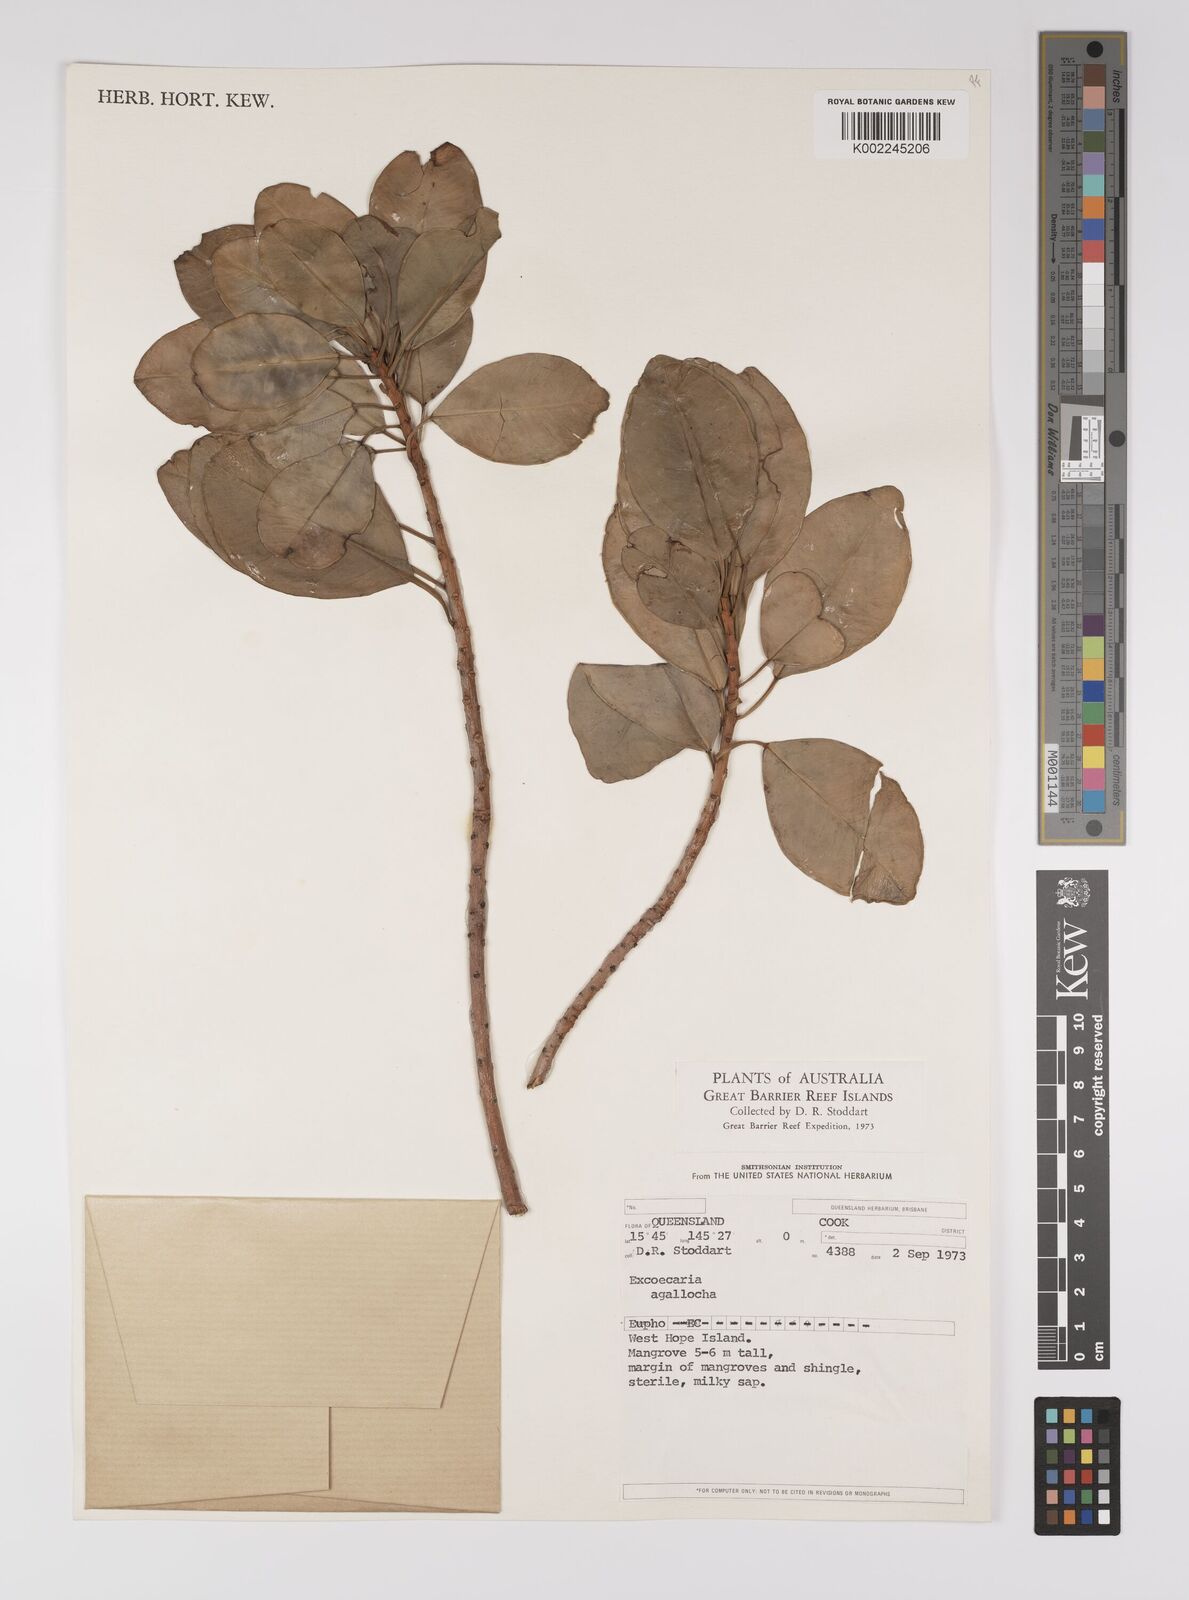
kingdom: Plantae
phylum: Tracheophyta
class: Magnoliopsida
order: Malpighiales
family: Euphorbiaceae
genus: Excoecaria
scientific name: Excoecaria agallocha
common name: River poisontree
